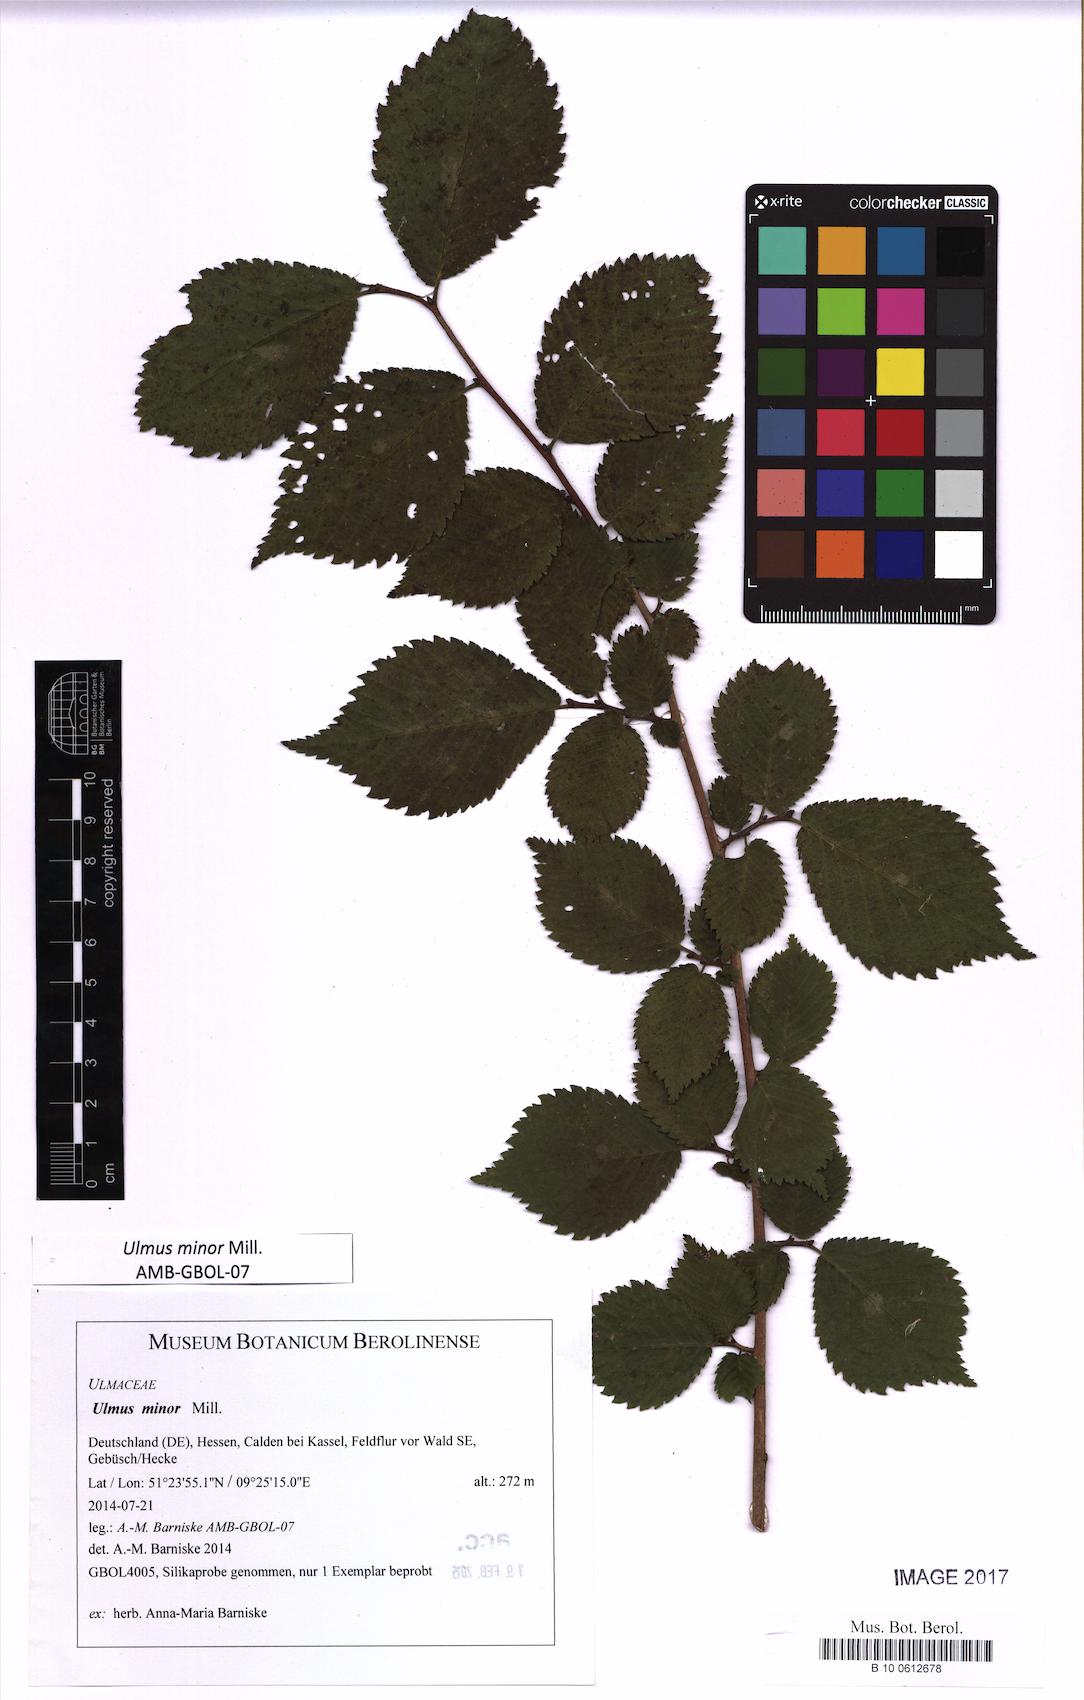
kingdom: Plantae
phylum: Tracheophyta
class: Magnoliopsida
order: Rosales
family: Ulmaceae
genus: Ulmus
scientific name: Ulmus minor
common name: Small-leaved elm
